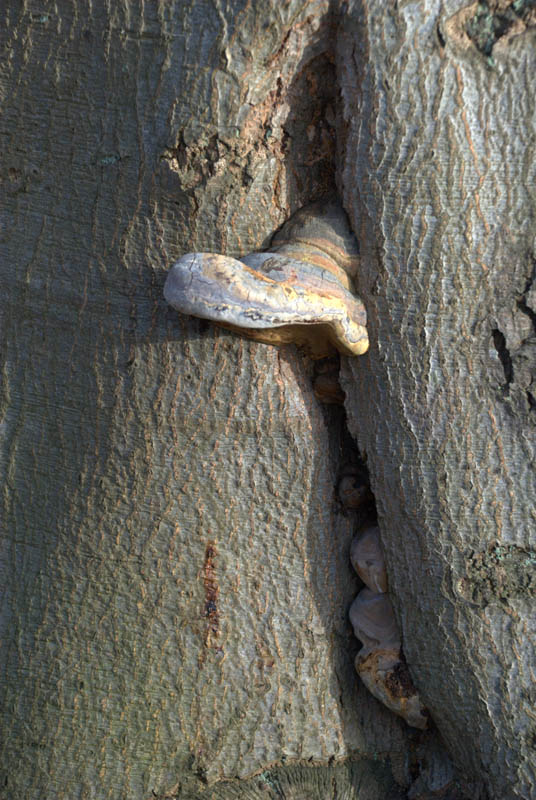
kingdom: Fungi
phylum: Basidiomycota
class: Agaricomycetes
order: Polyporales
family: Polyporaceae
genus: Ganoderma
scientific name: Ganoderma pfeifferi
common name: kobberrød lakporesvamp
